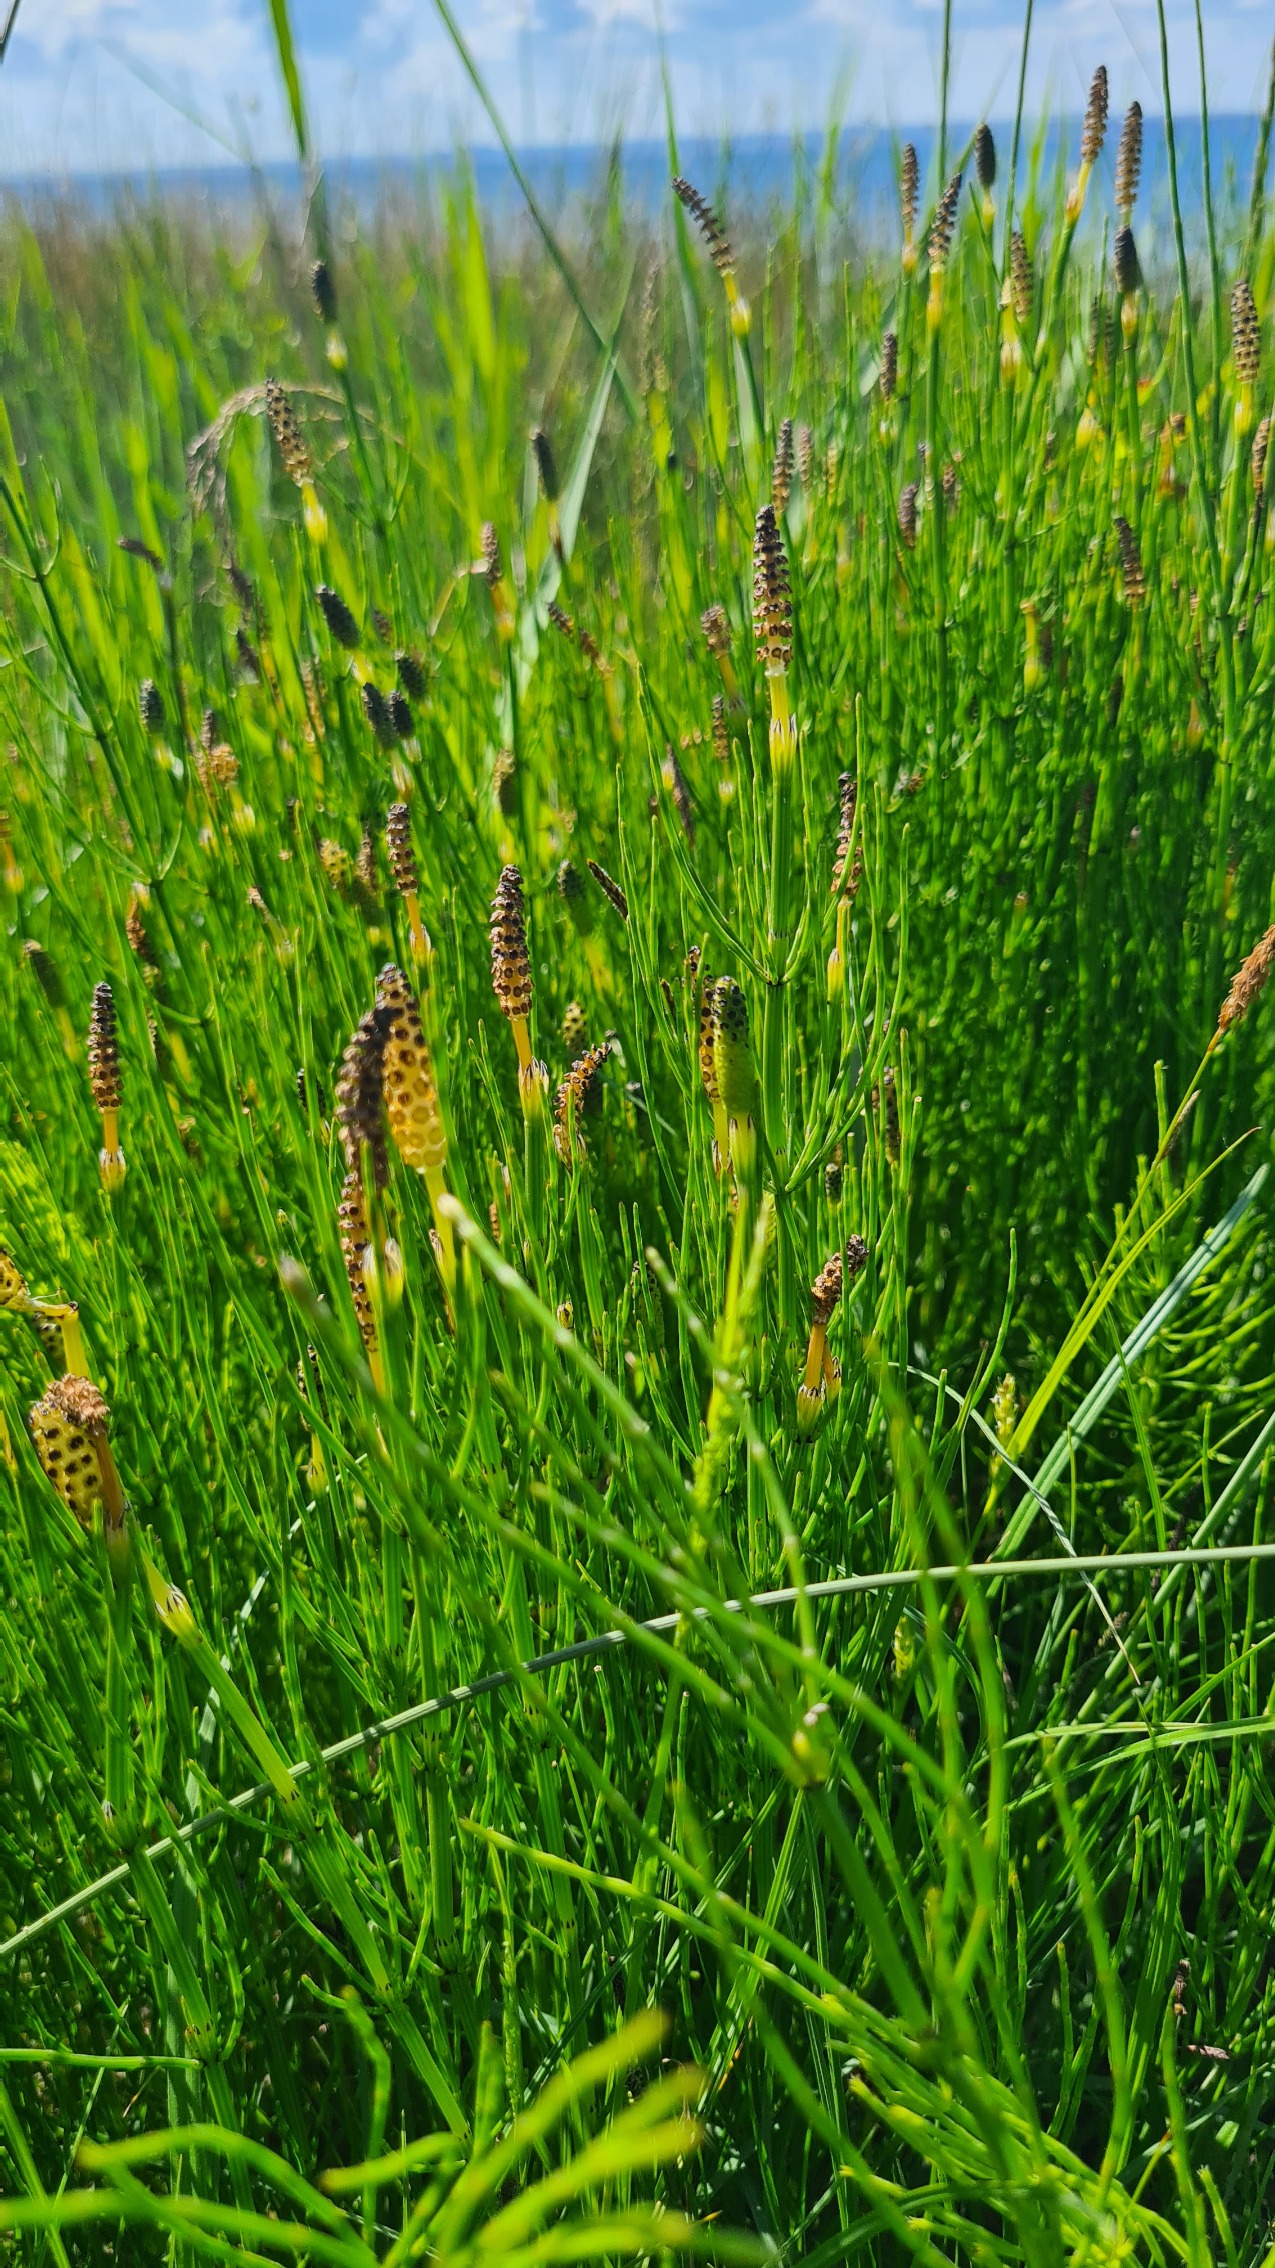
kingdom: Plantae
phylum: Tracheophyta
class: Polypodiopsida
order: Equisetales
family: Equisetaceae
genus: Equisetum
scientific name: Equisetum palustre
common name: Kær-padderok
